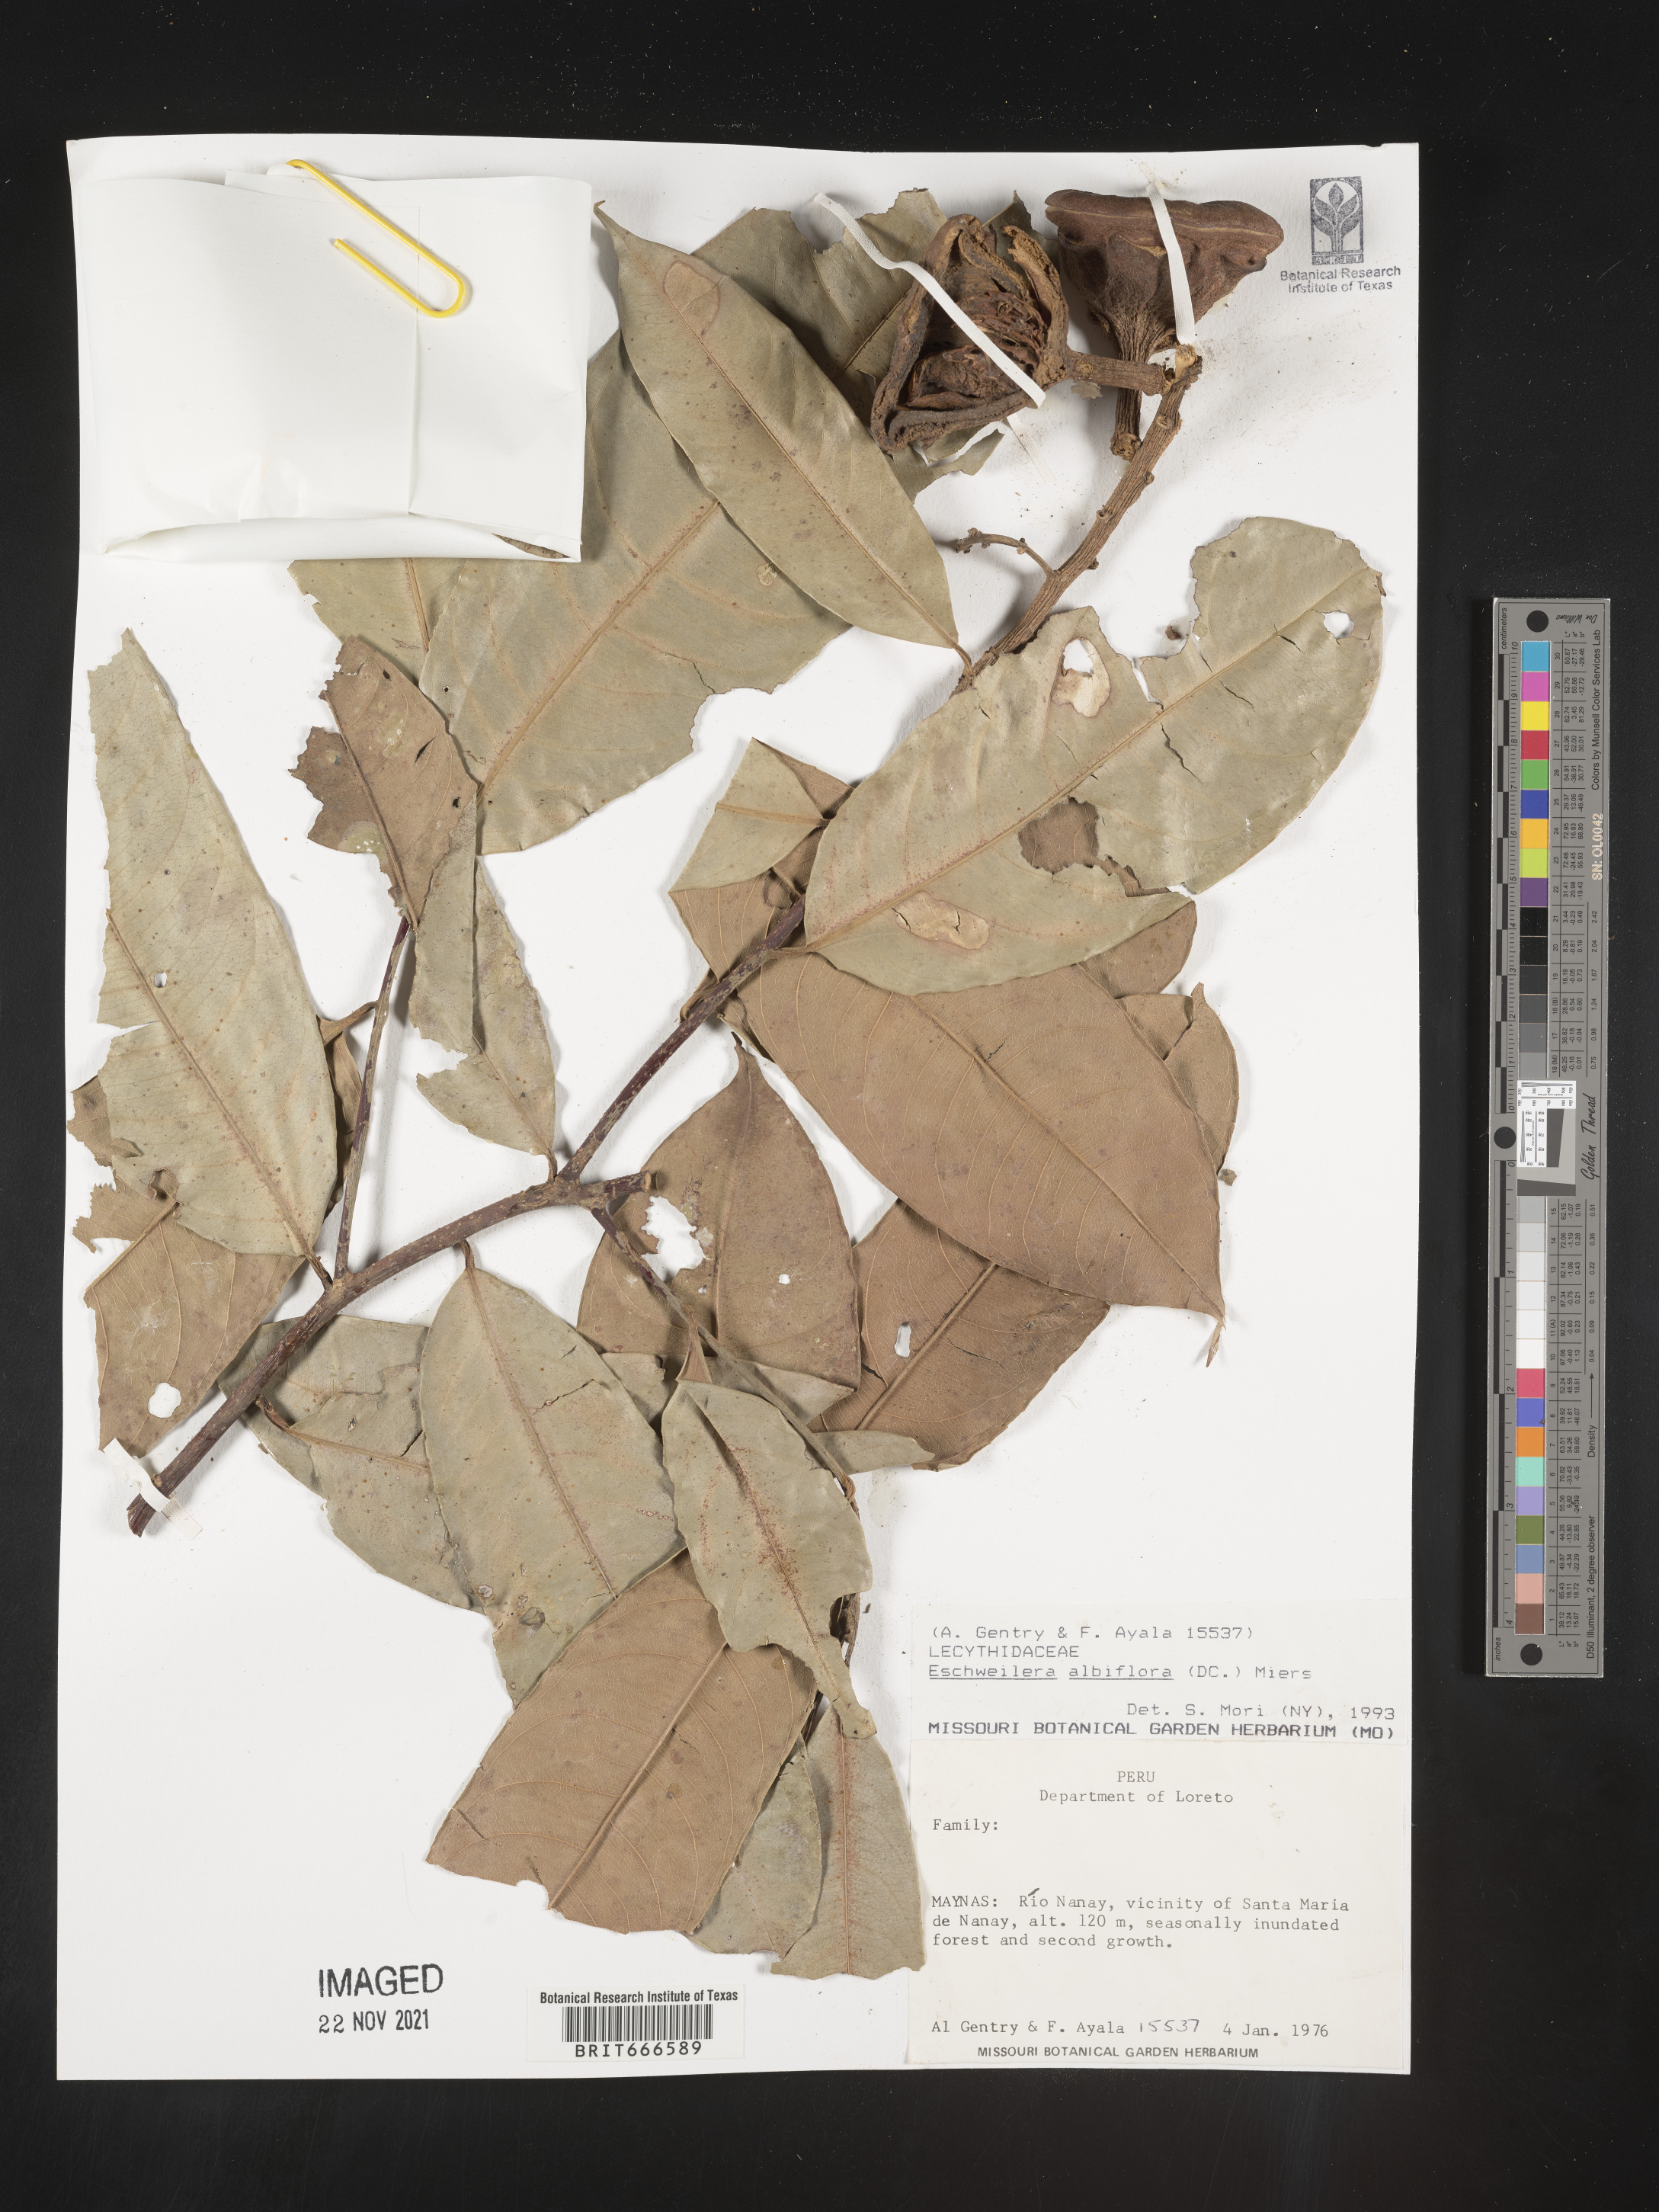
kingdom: Plantae
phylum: Tracheophyta
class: Magnoliopsida
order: Ericales
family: Lecythidaceae
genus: Eschweilera
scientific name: Eschweilera
